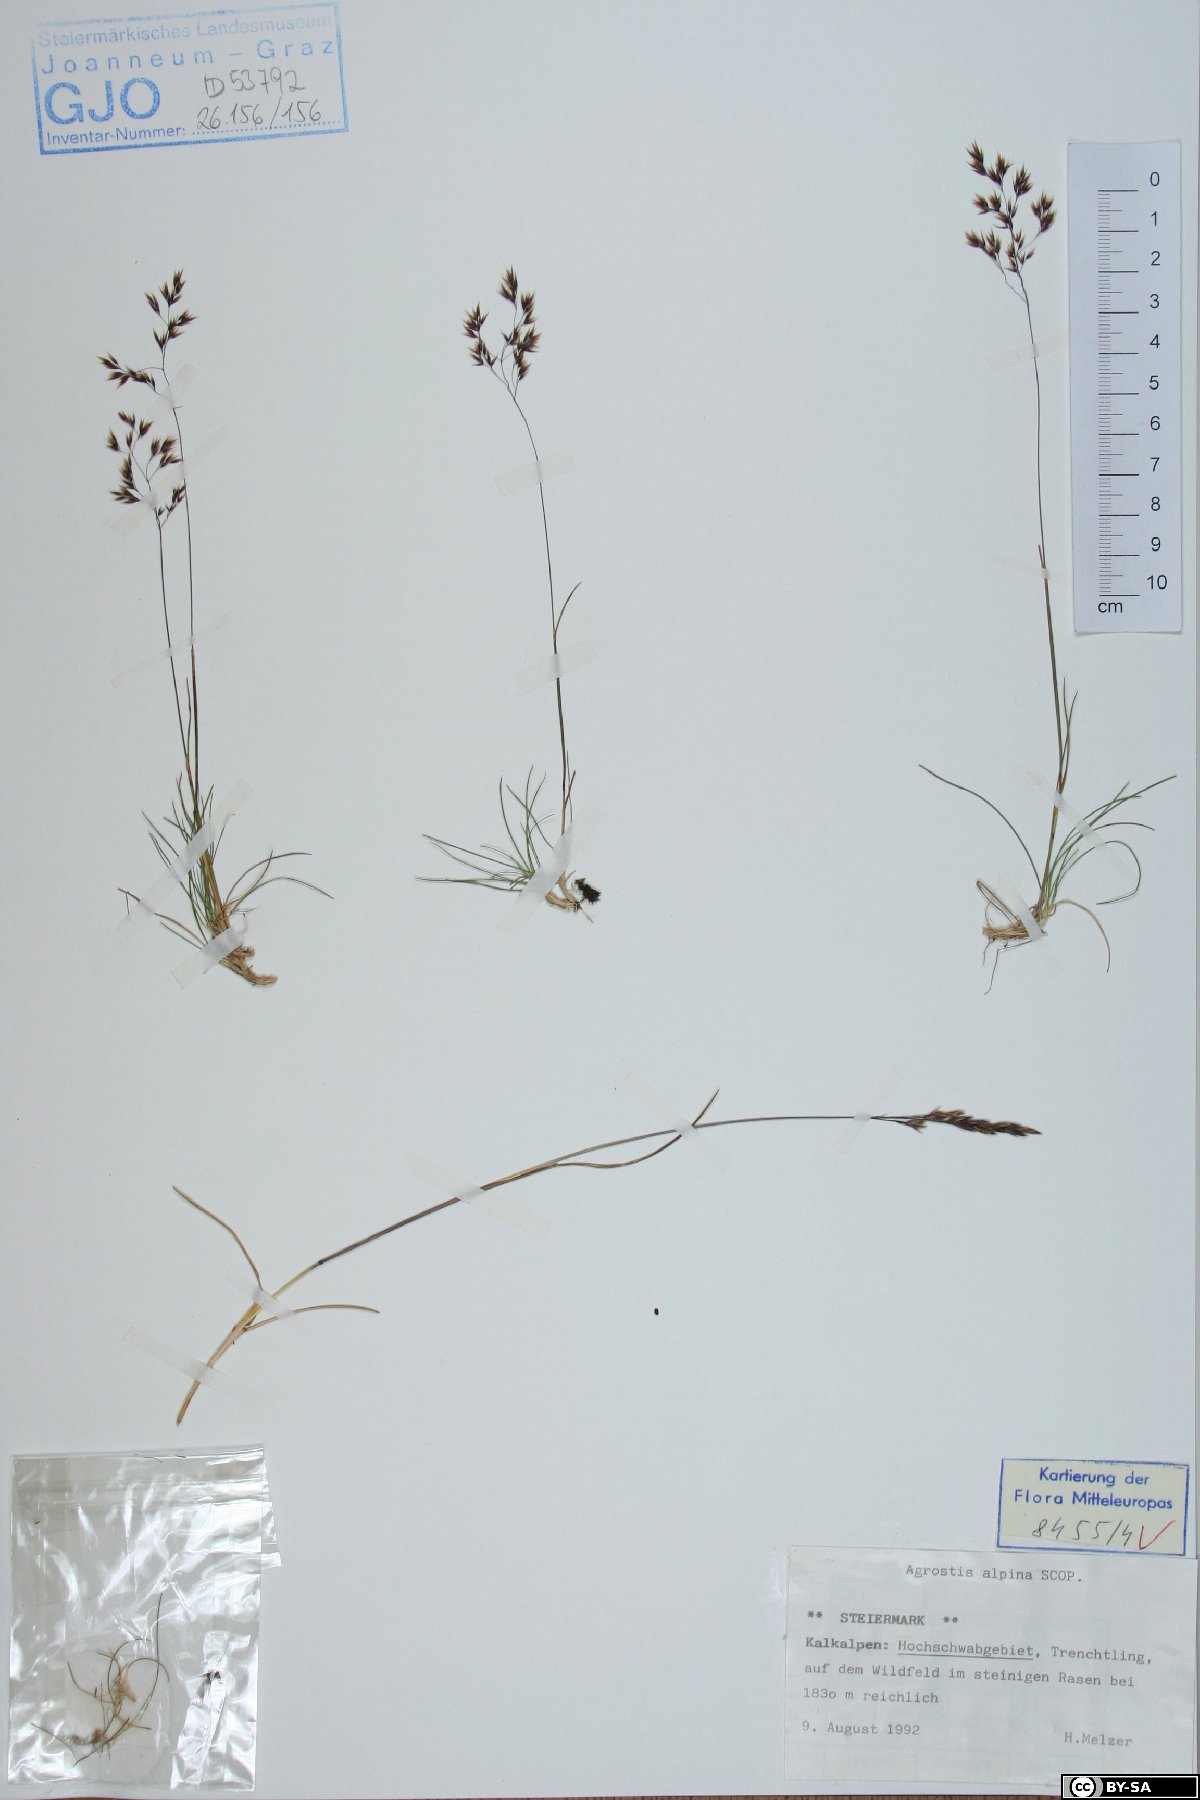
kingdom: Plantae
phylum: Tracheophyta
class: Liliopsida
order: Poales
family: Poaceae
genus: Alpagrostis
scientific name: Alpagrostis alpina
